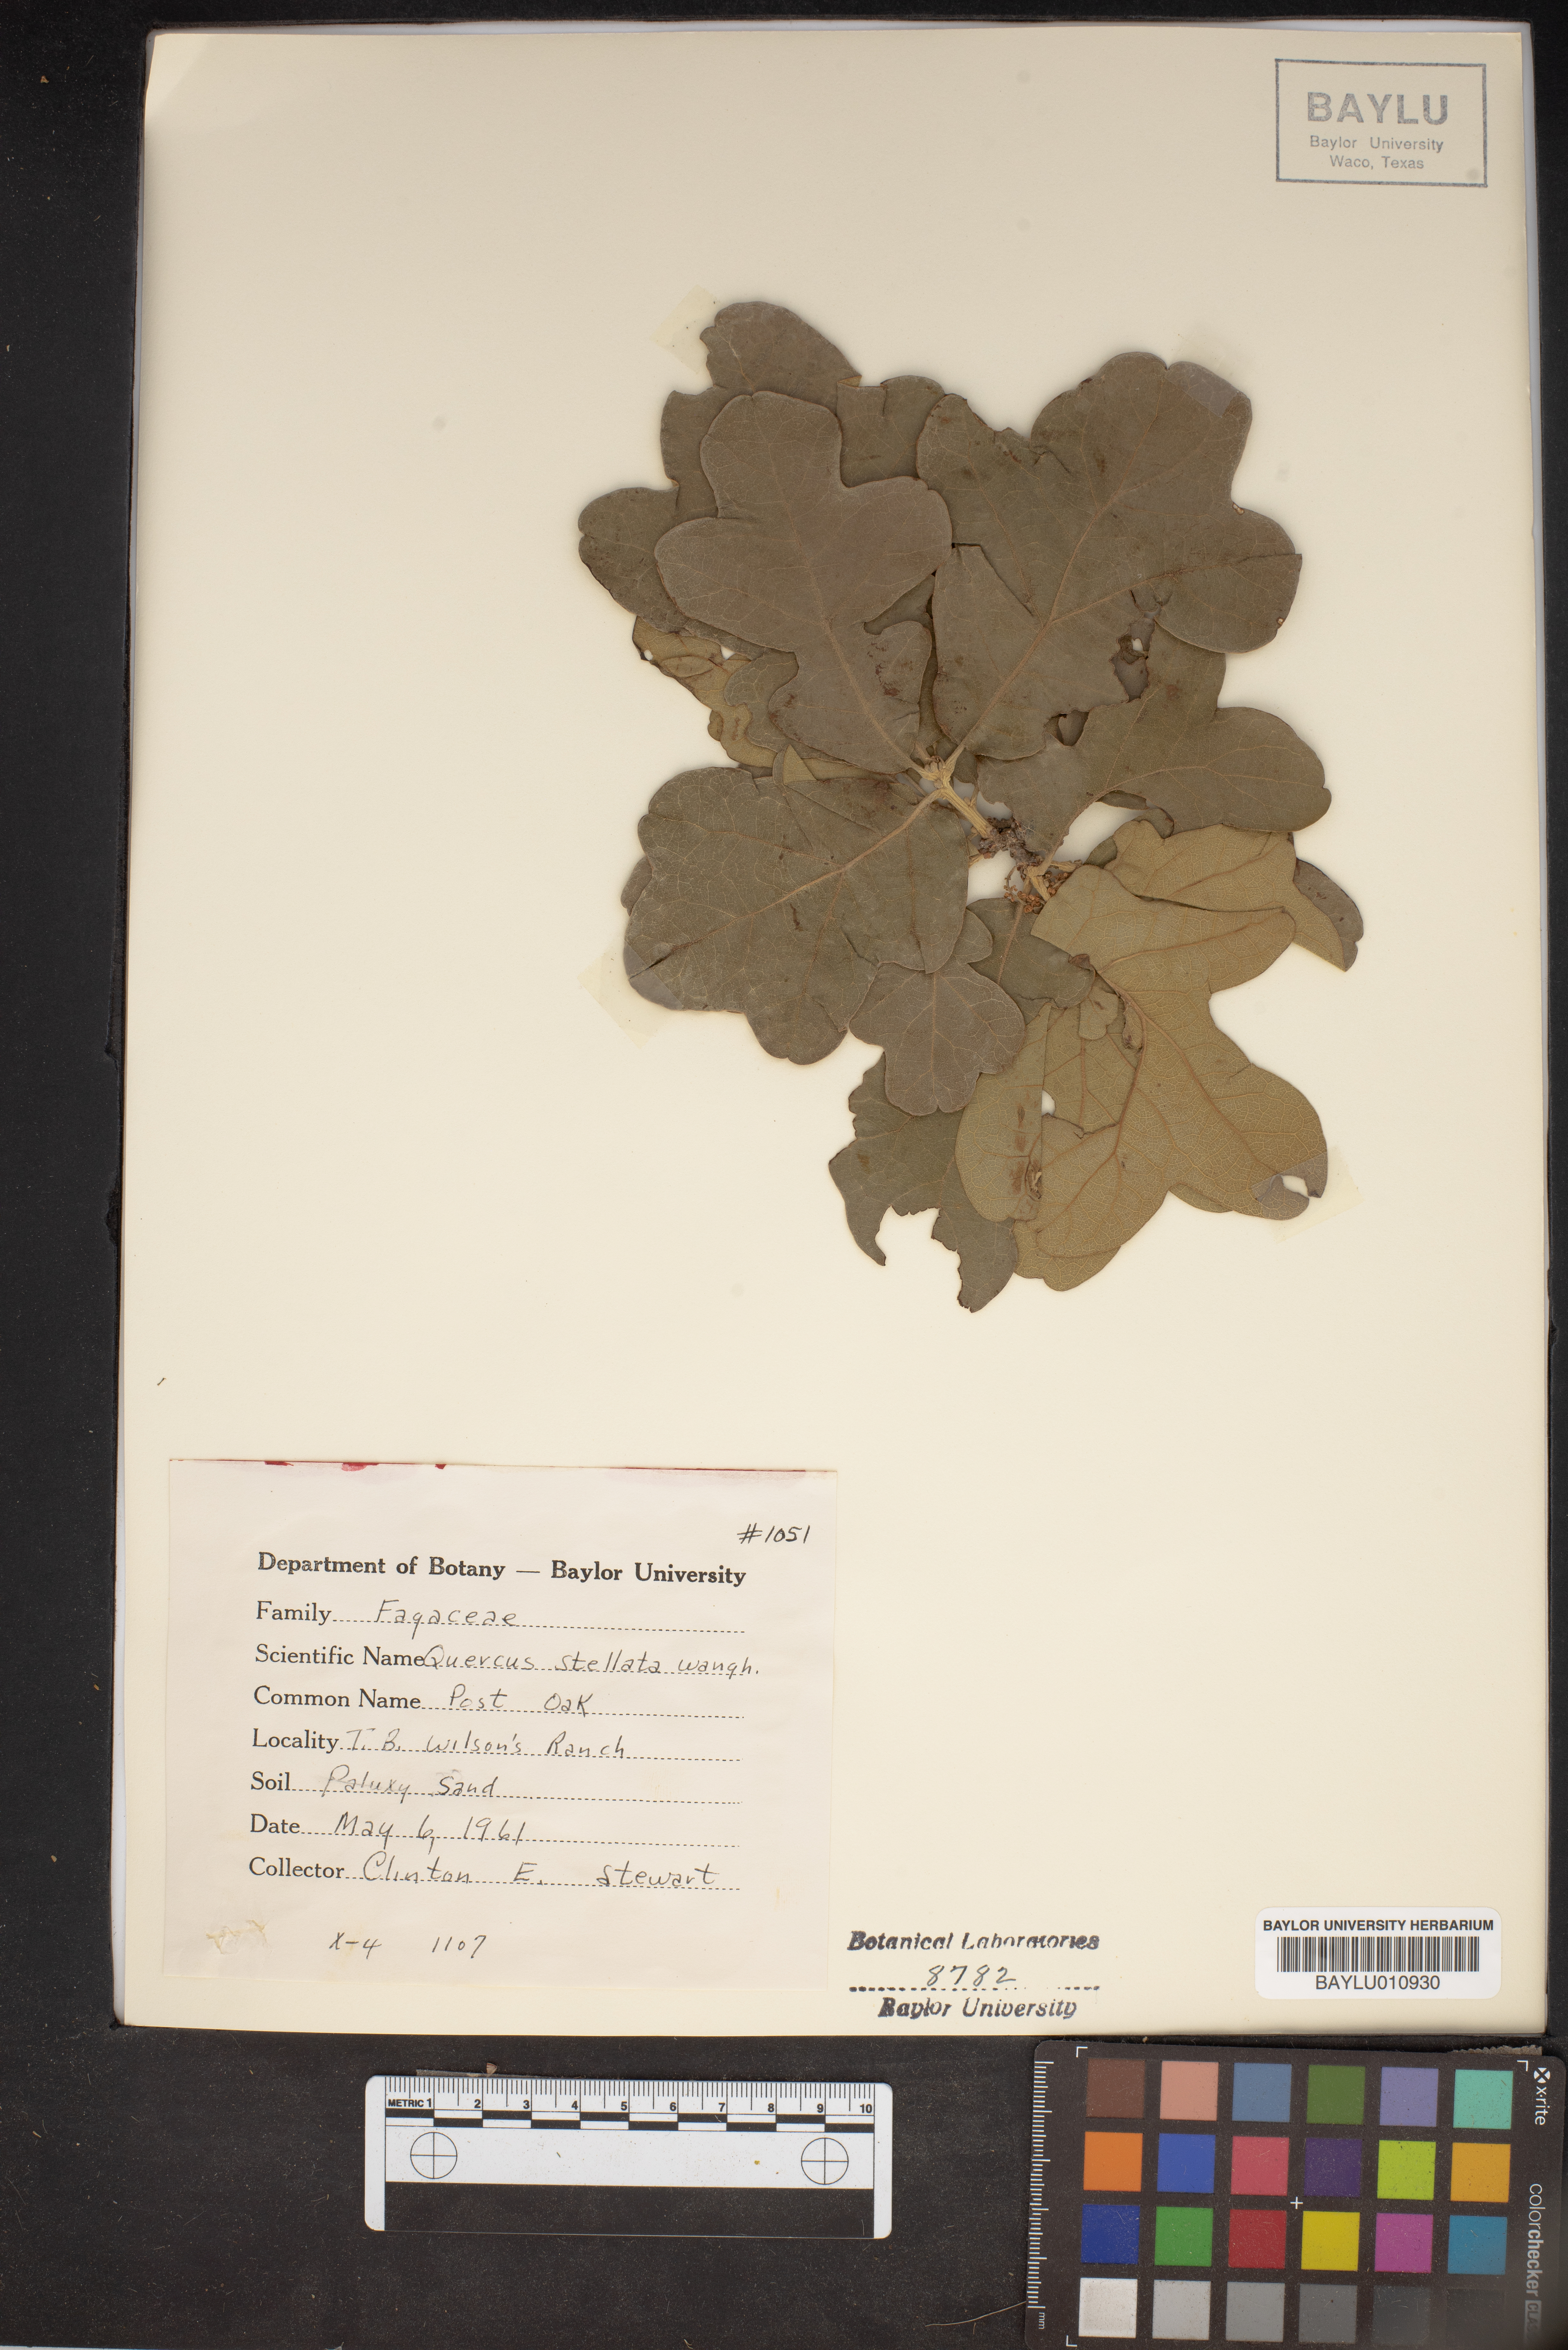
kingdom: Plantae
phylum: Tracheophyta
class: Magnoliopsida
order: Fagales
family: Fagaceae
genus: Quercus
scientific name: Quercus stellata
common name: Post oak
